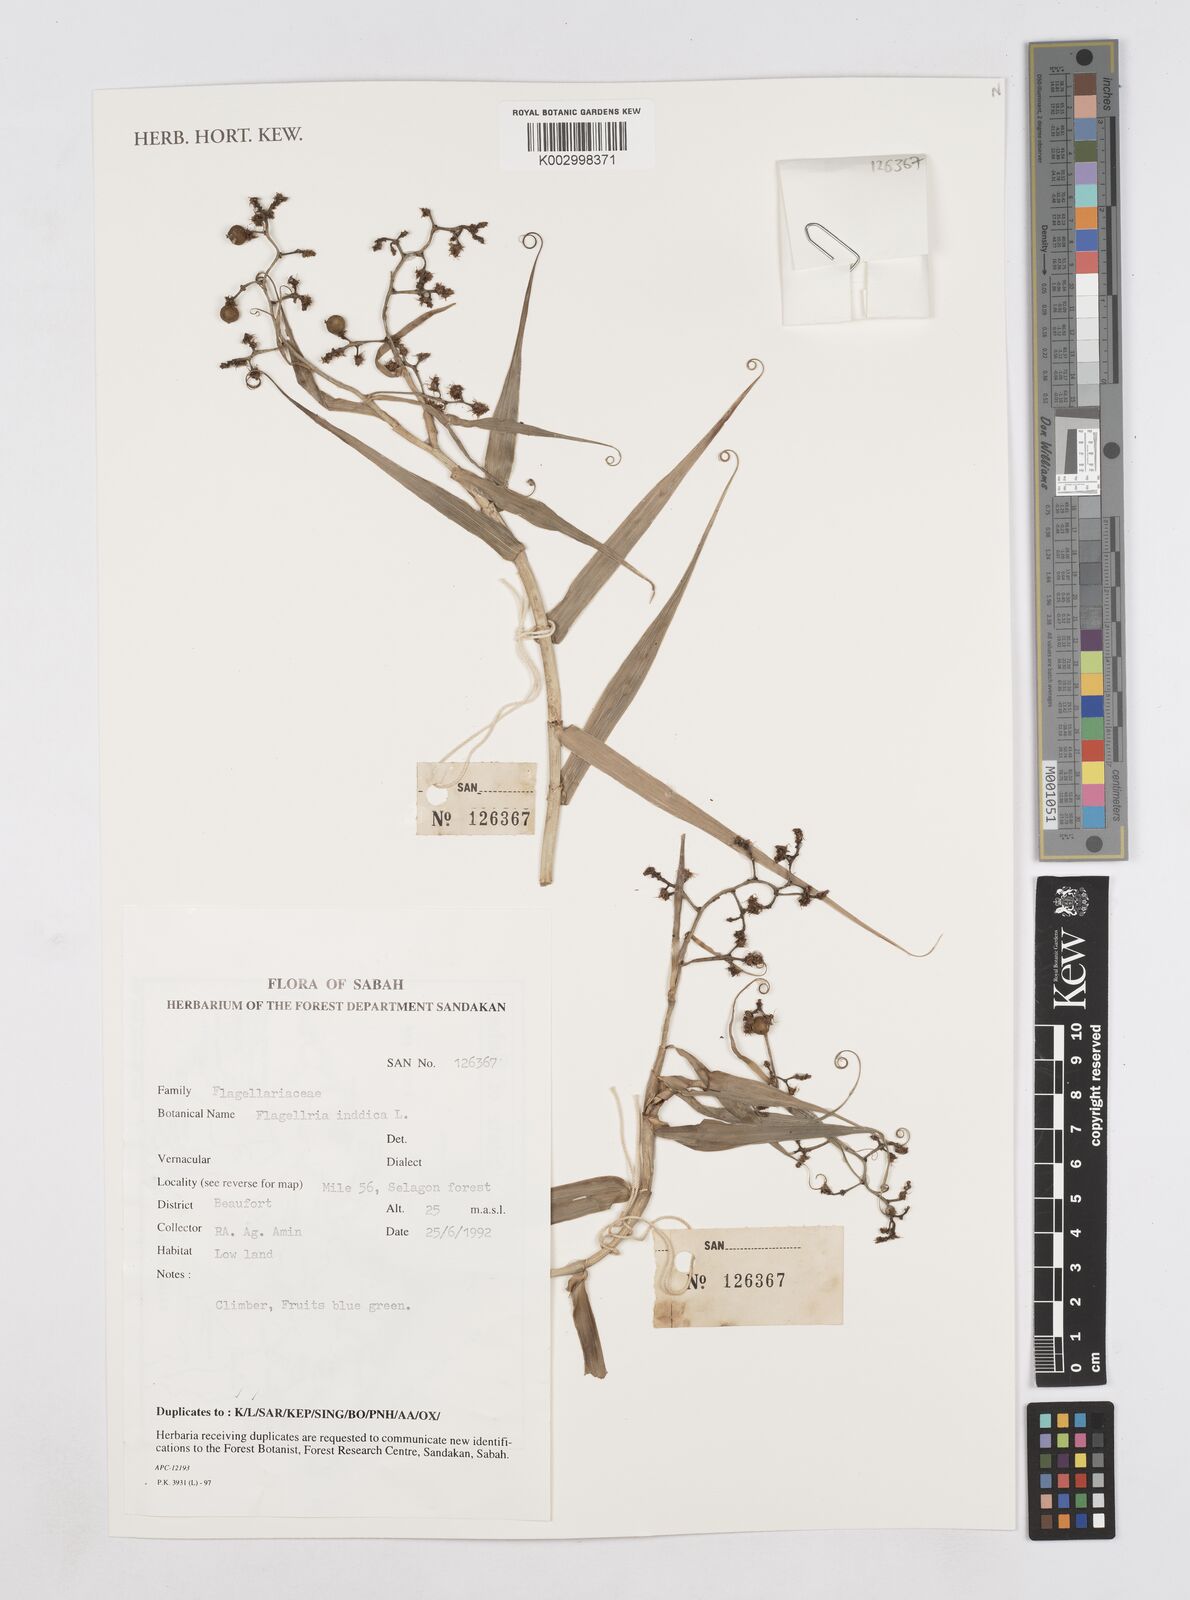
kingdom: Plantae
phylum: Tracheophyta
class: Liliopsida
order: Poales
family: Flagellariaceae
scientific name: Flagellariaceae
